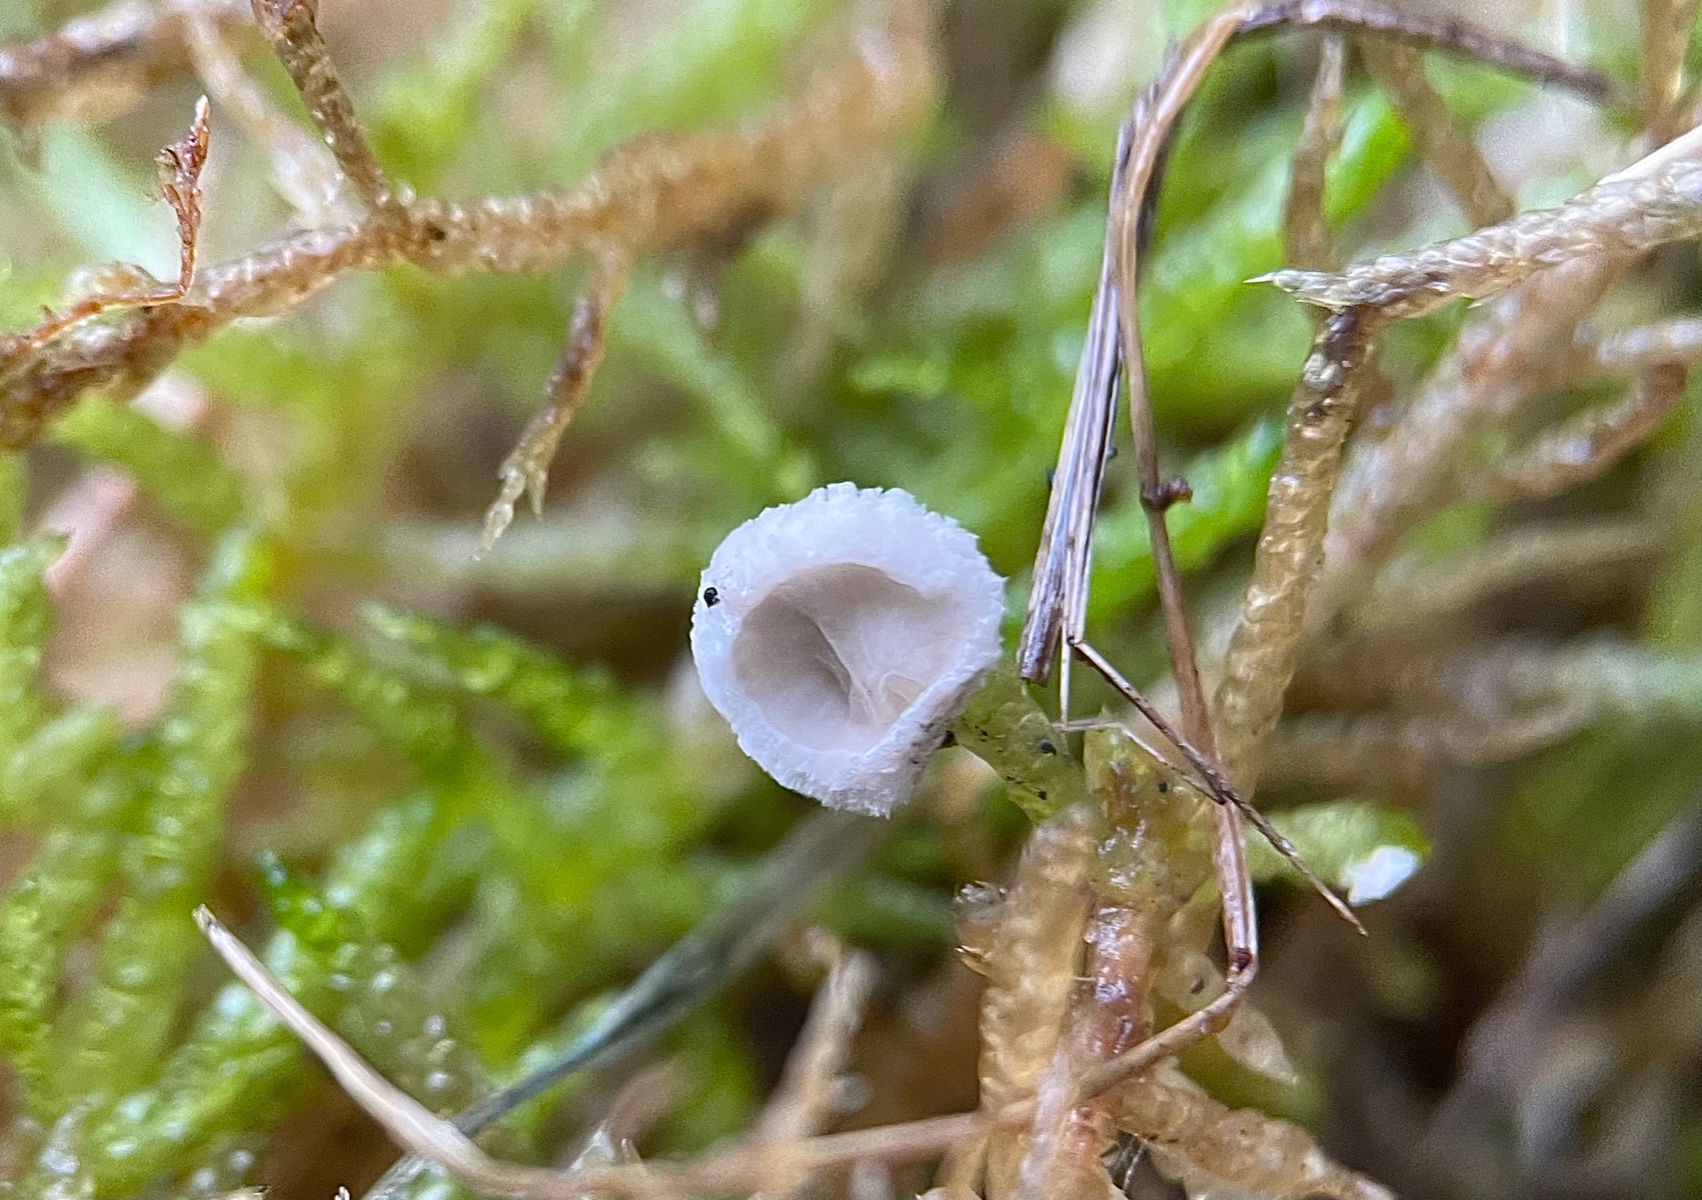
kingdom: Fungi
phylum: Basidiomycota
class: Agaricomycetes
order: Agaricales
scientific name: Agaricales
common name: champignonordenen
